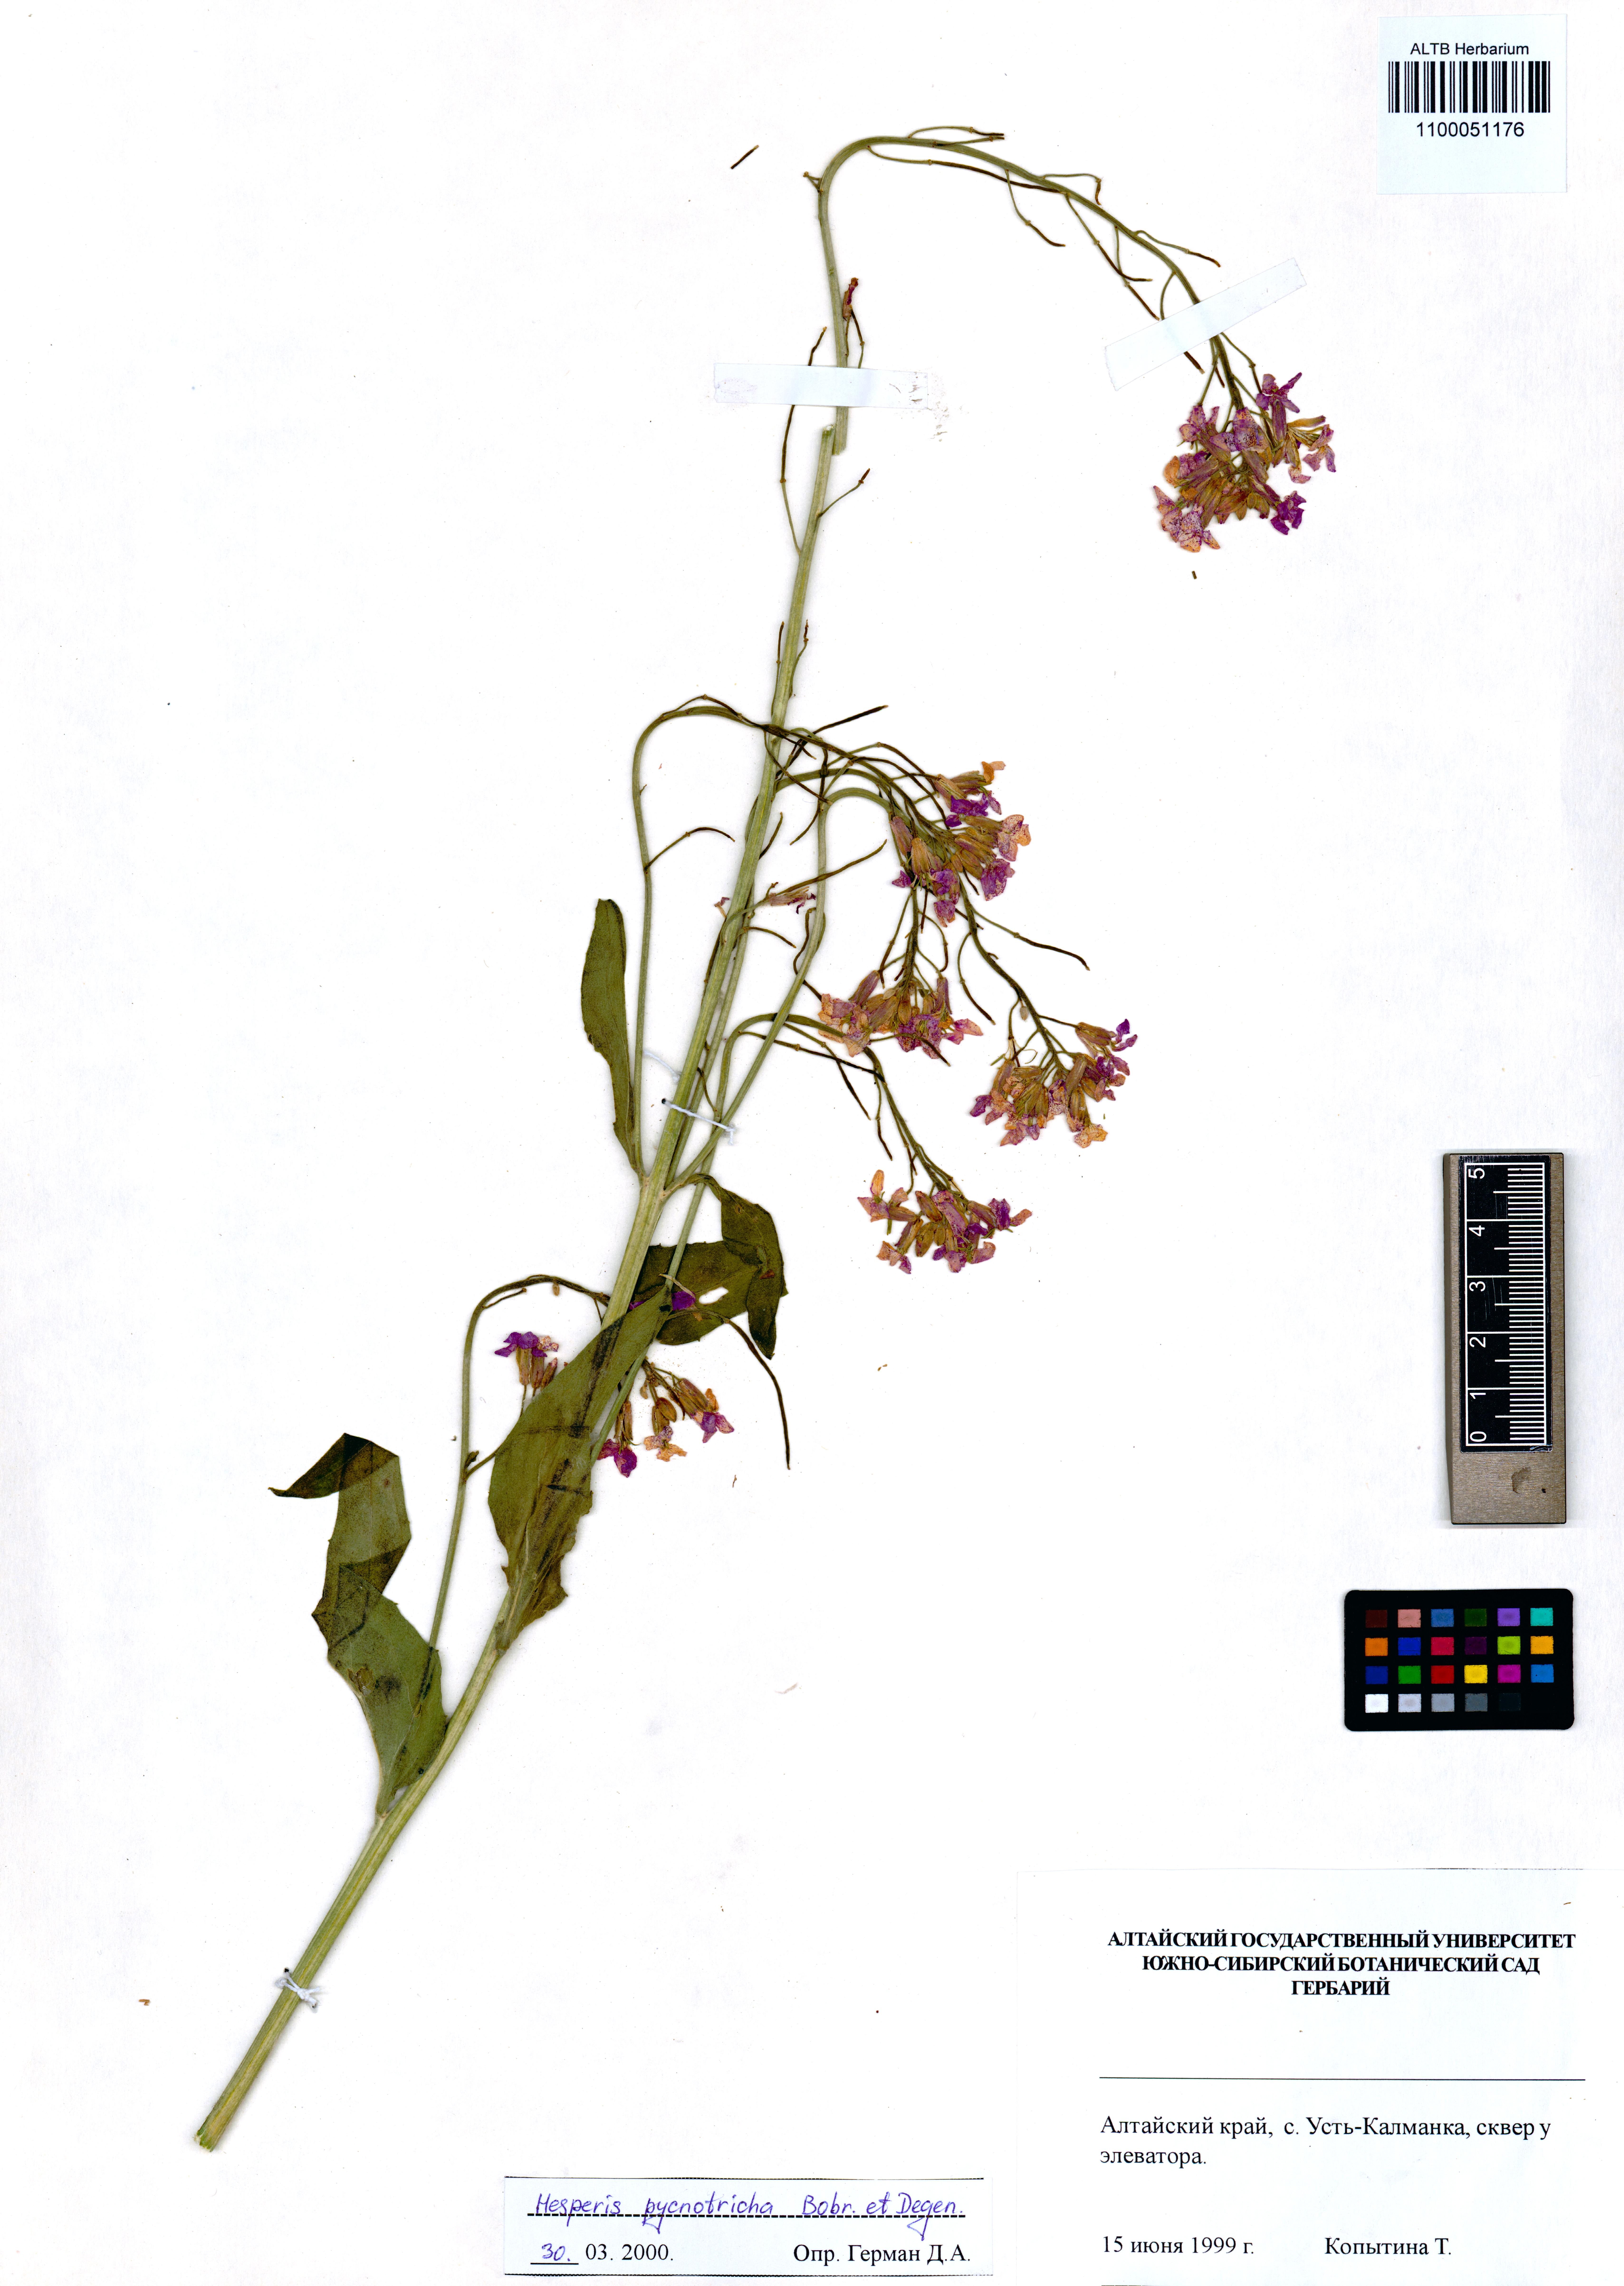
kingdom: Plantae
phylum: Tracheophyta
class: Magnoliopsida
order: Brassicales
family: Brassicaceae
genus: Hesperis
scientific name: Hesperis pycnotricha
